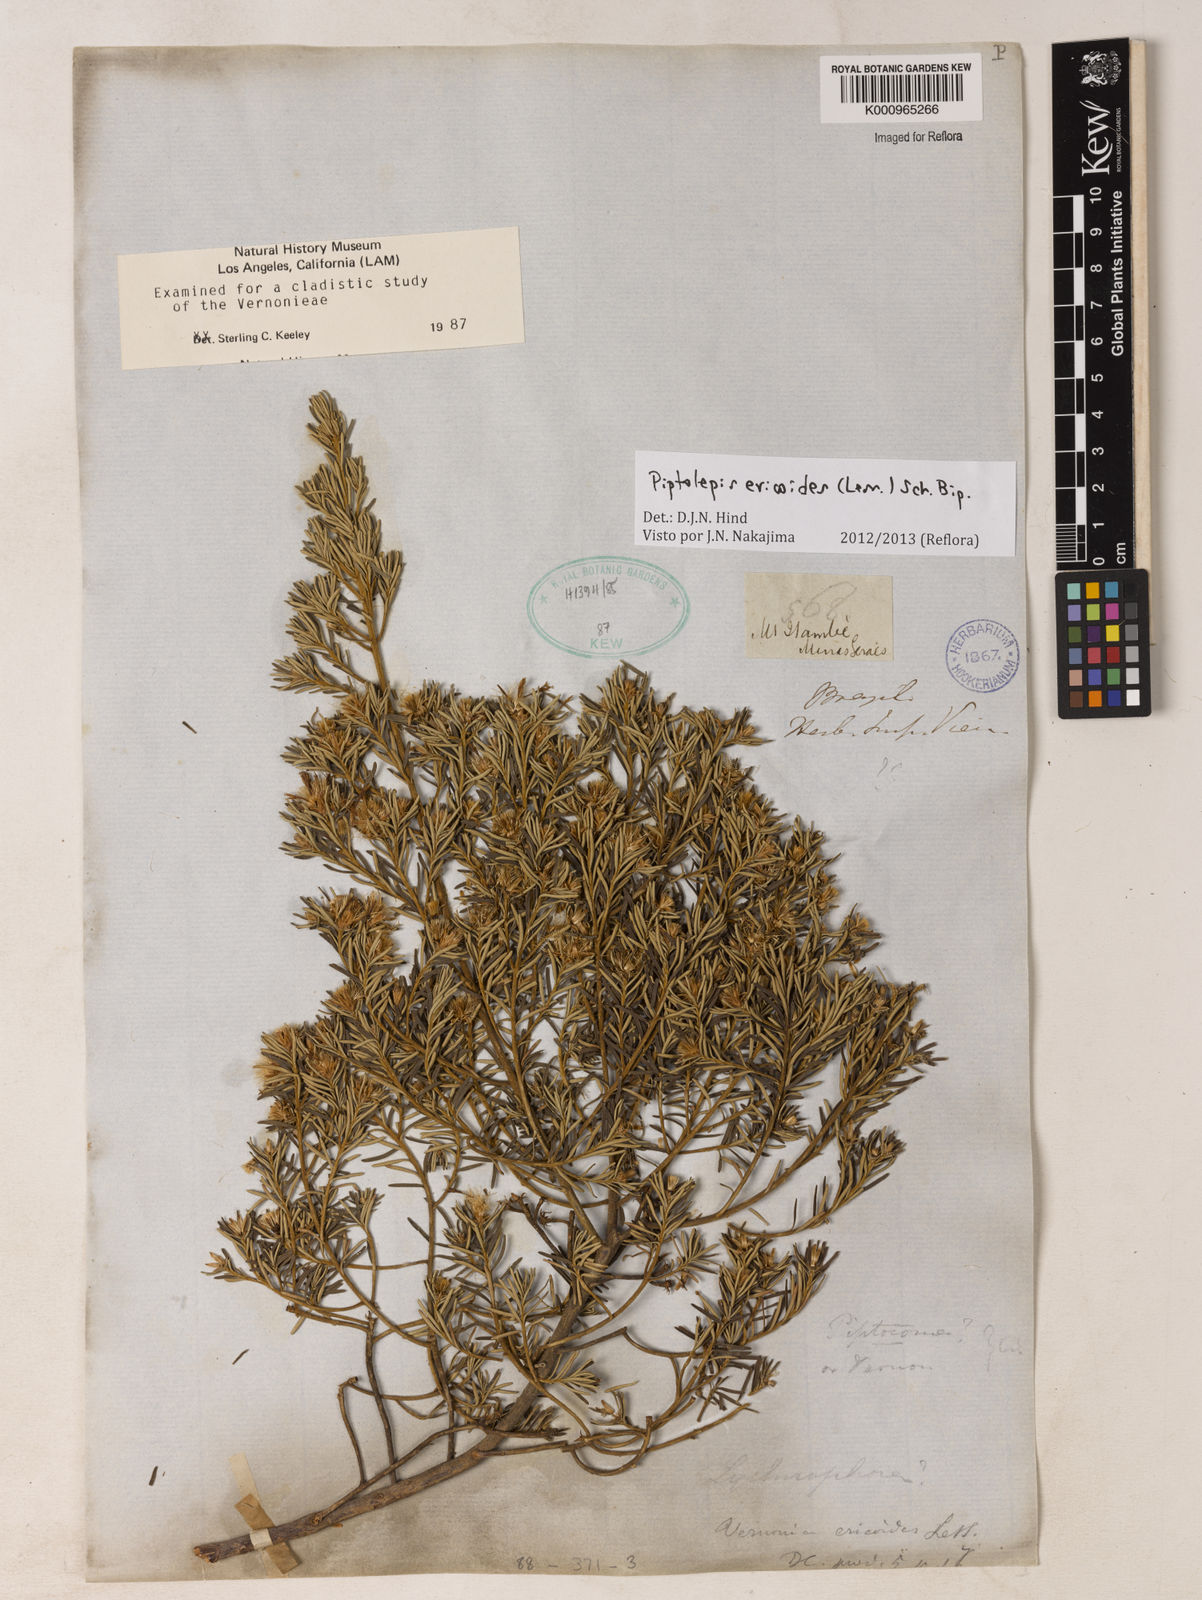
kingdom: Plantae
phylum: Tracheophyta
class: Magnoliopsida
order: Asterales
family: Asteraceae
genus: Piptolepis
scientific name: Piptolepis ericoides
